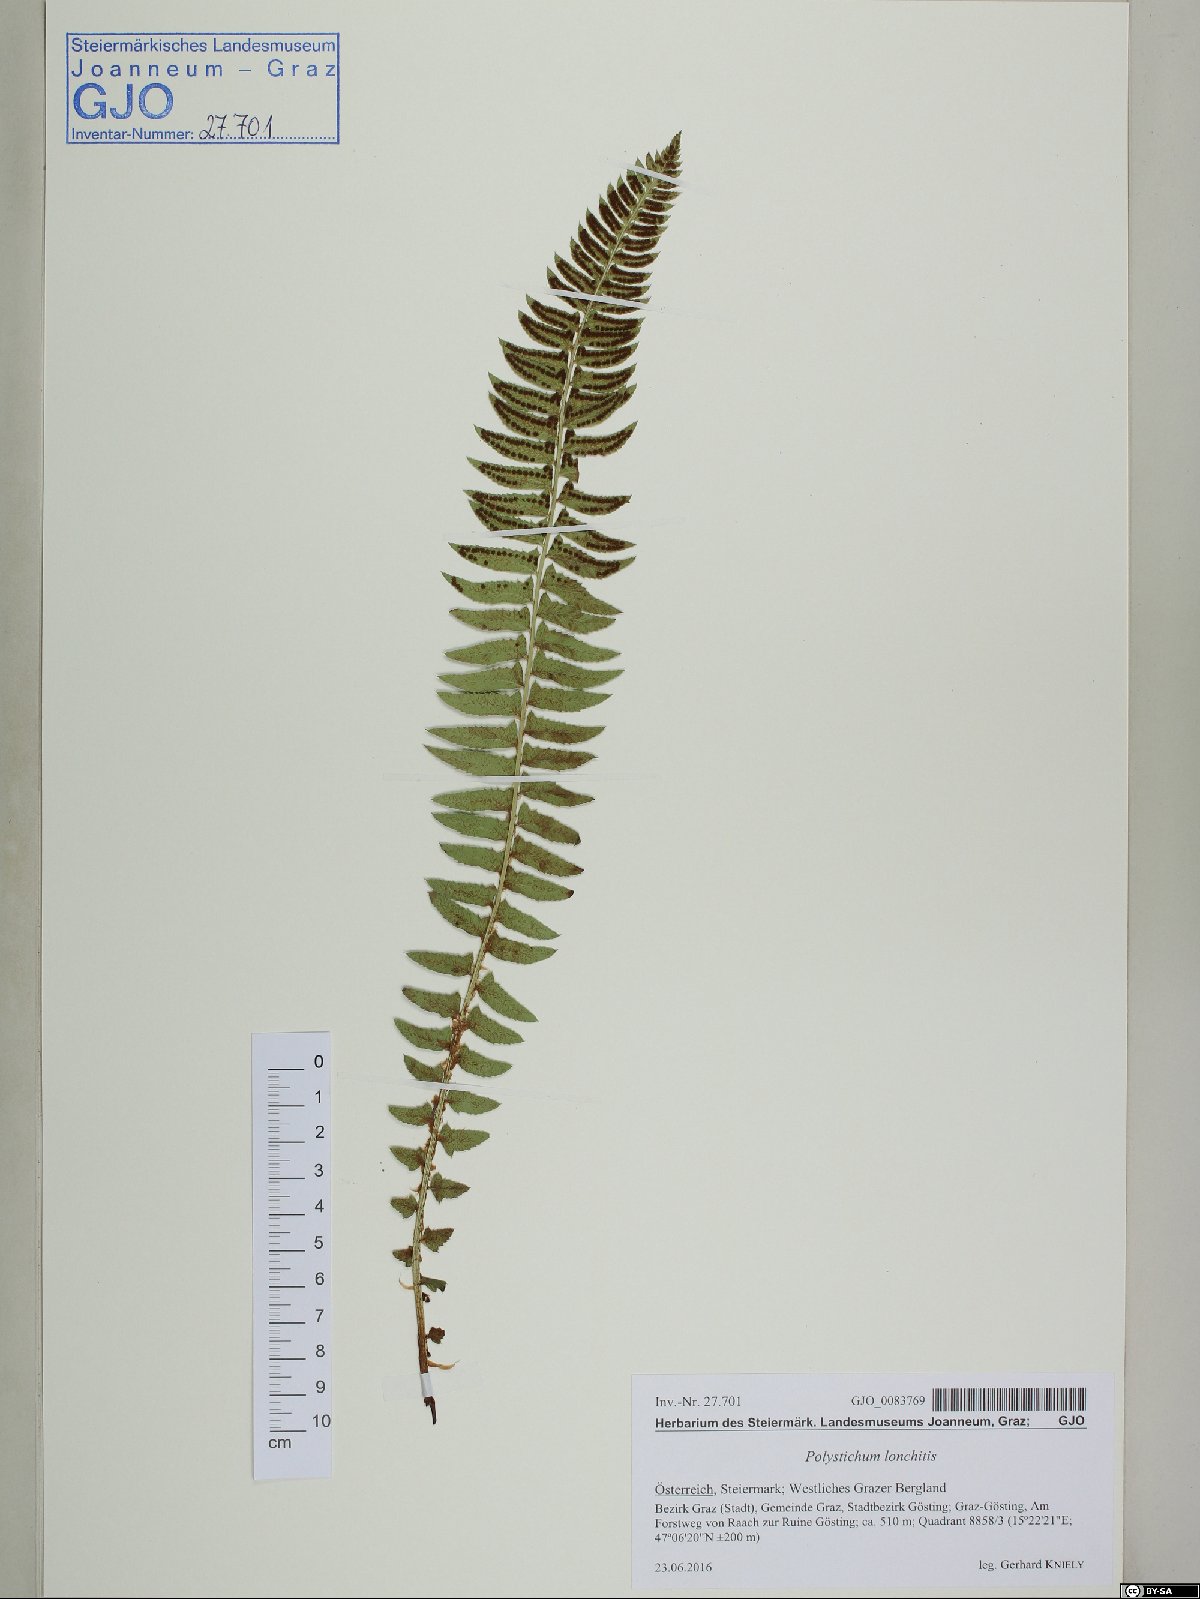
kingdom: Plantae
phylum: Tracheophyta
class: Polypodiopsida
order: Polypodiales
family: Dryopteridaceae
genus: Polystichum
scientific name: Polystichum lonchitis
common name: Holly fern
